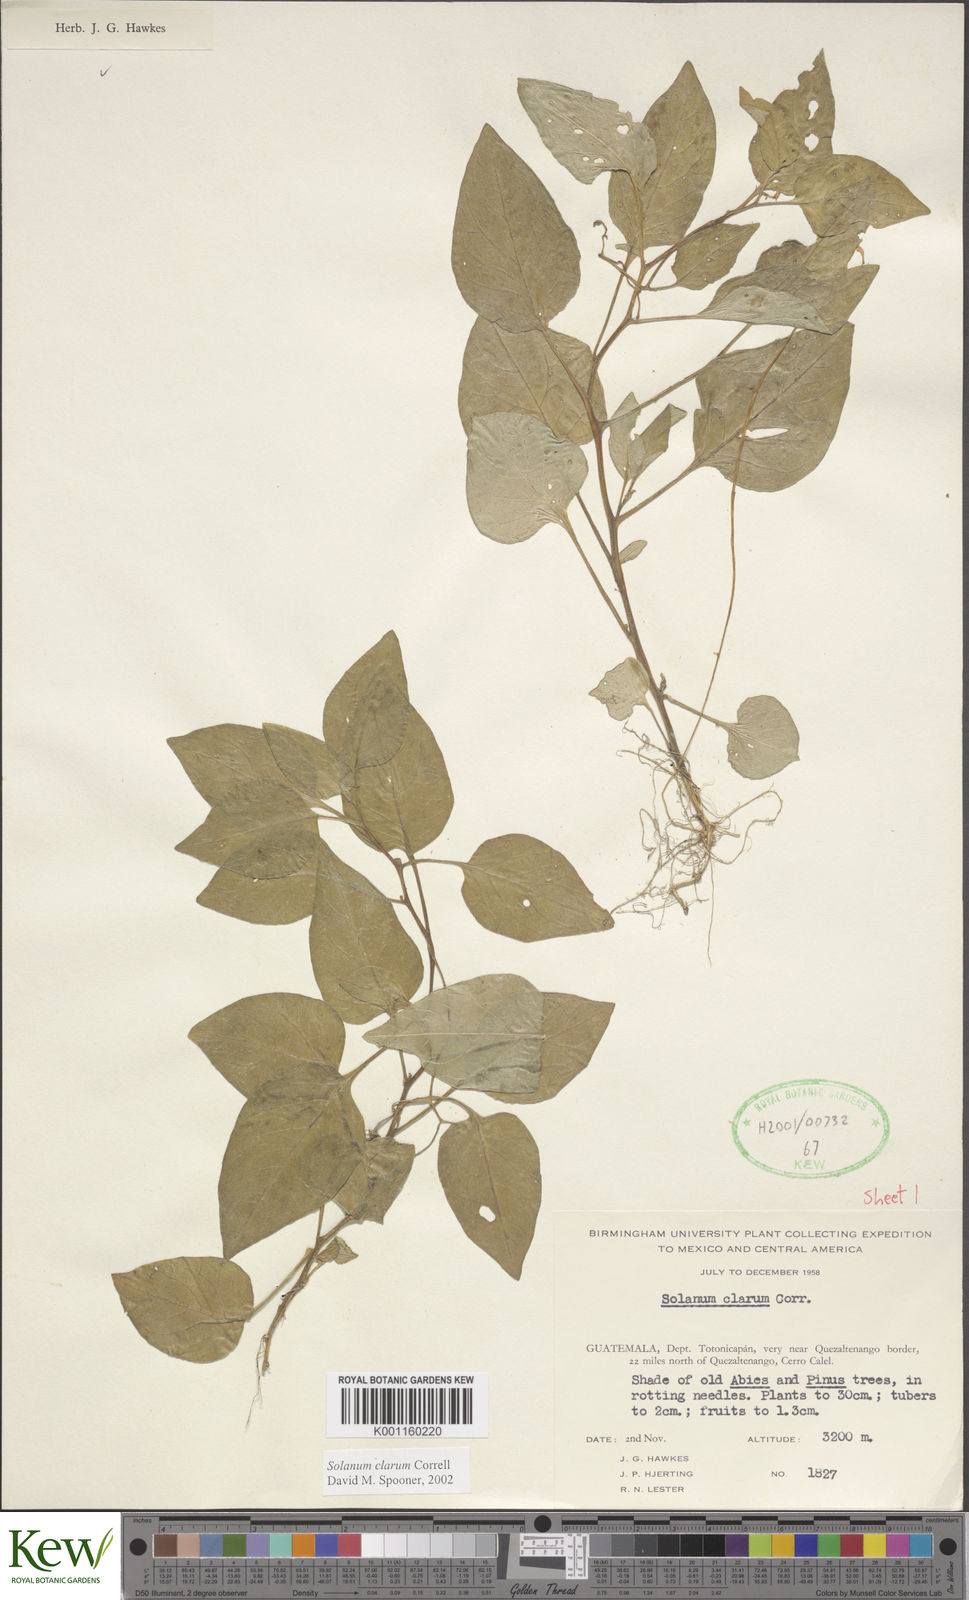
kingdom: Plantae
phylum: Tracheophyta
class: Magnoliopsida
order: Solanales
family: Solanaceae
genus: Solanum
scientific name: Solanum clarum
